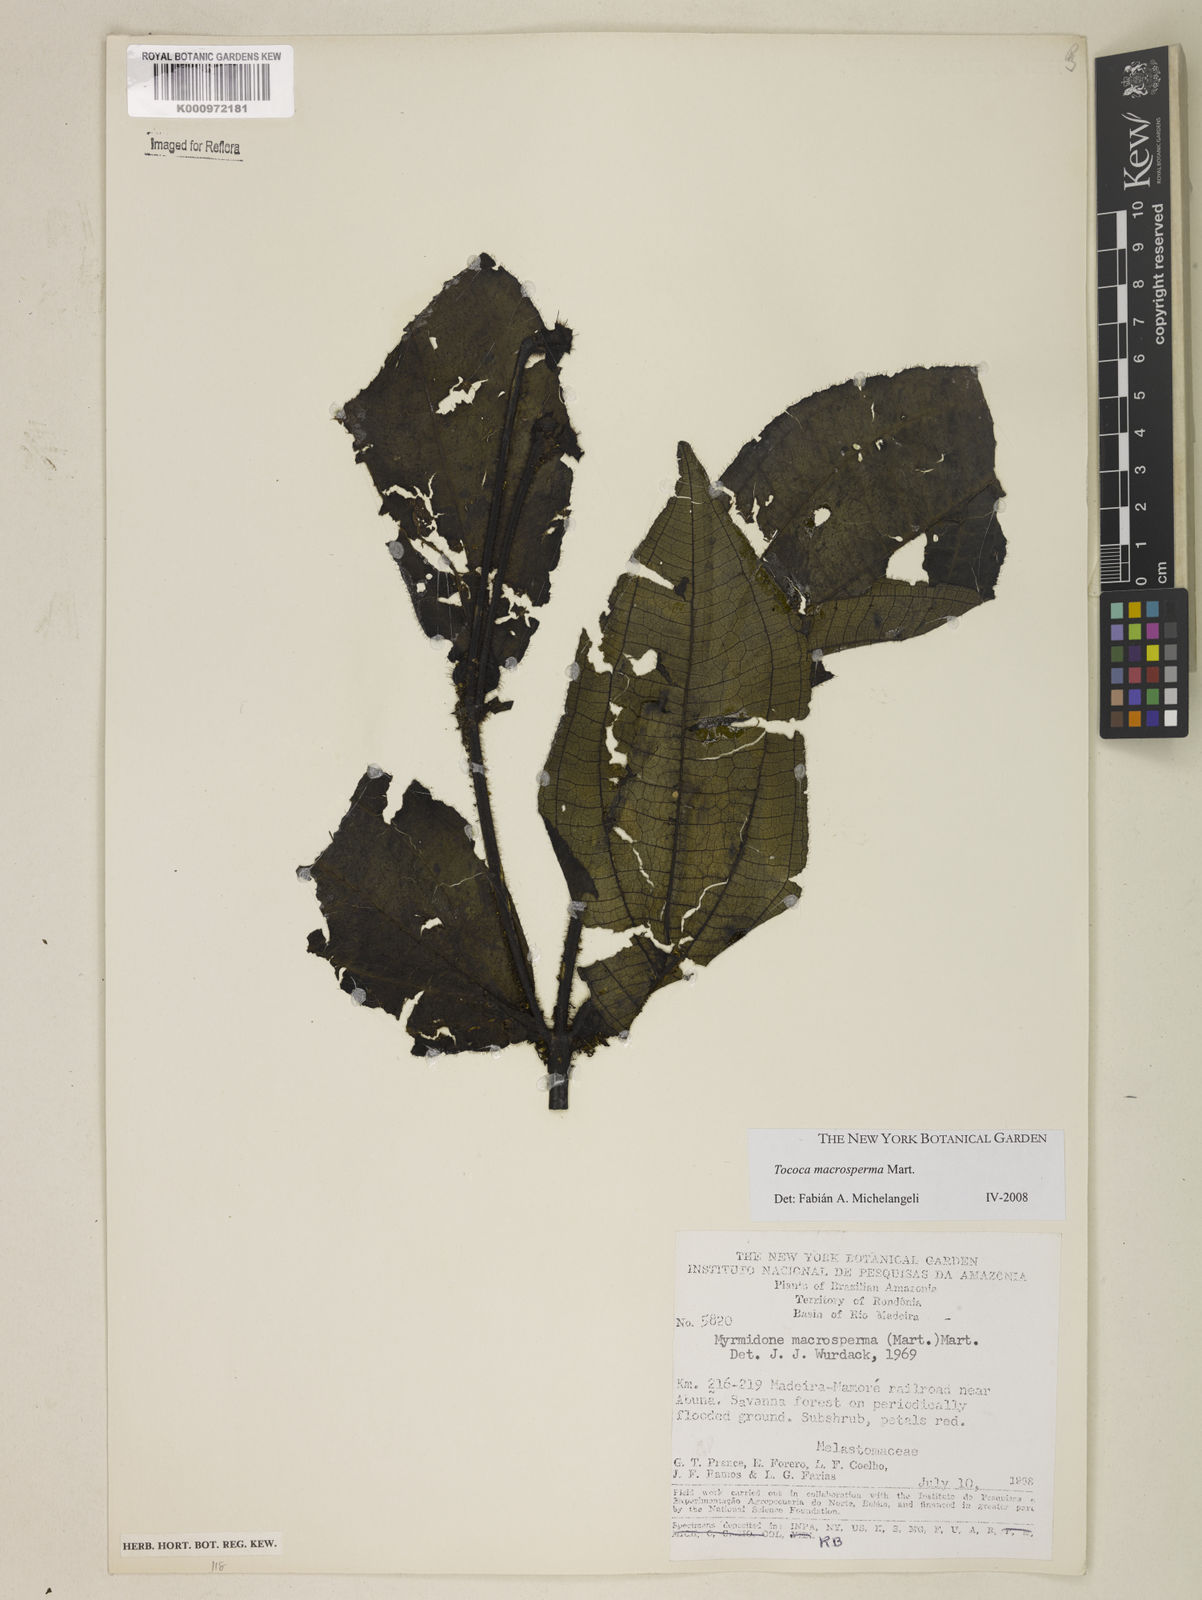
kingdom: Plantae
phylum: Tracheophyta
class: Magnoliopsida
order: Myrtales
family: Melastomataceae
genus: Miconia
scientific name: Miconia macrosperma
